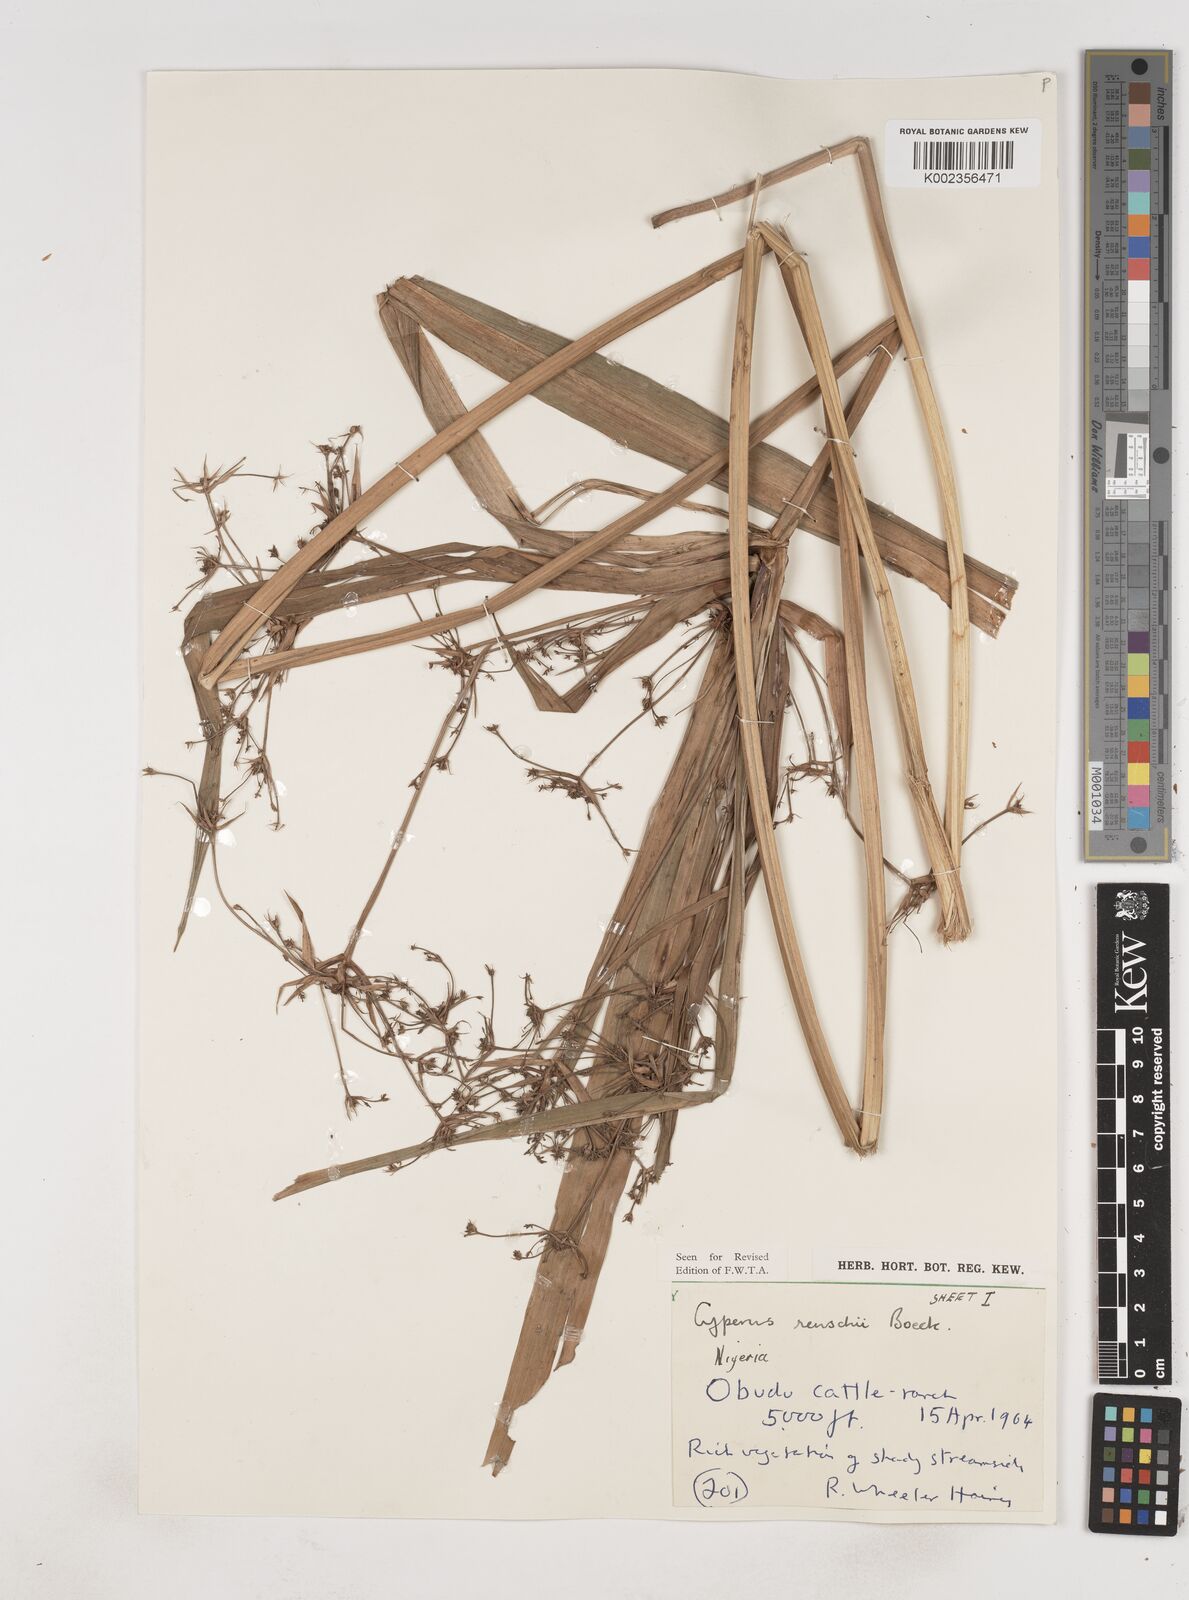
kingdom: Plantae
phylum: Tracheophyta
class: Liliopsida
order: Poales
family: Cyperaceae
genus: Cyperus
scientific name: Cyperus renschii
